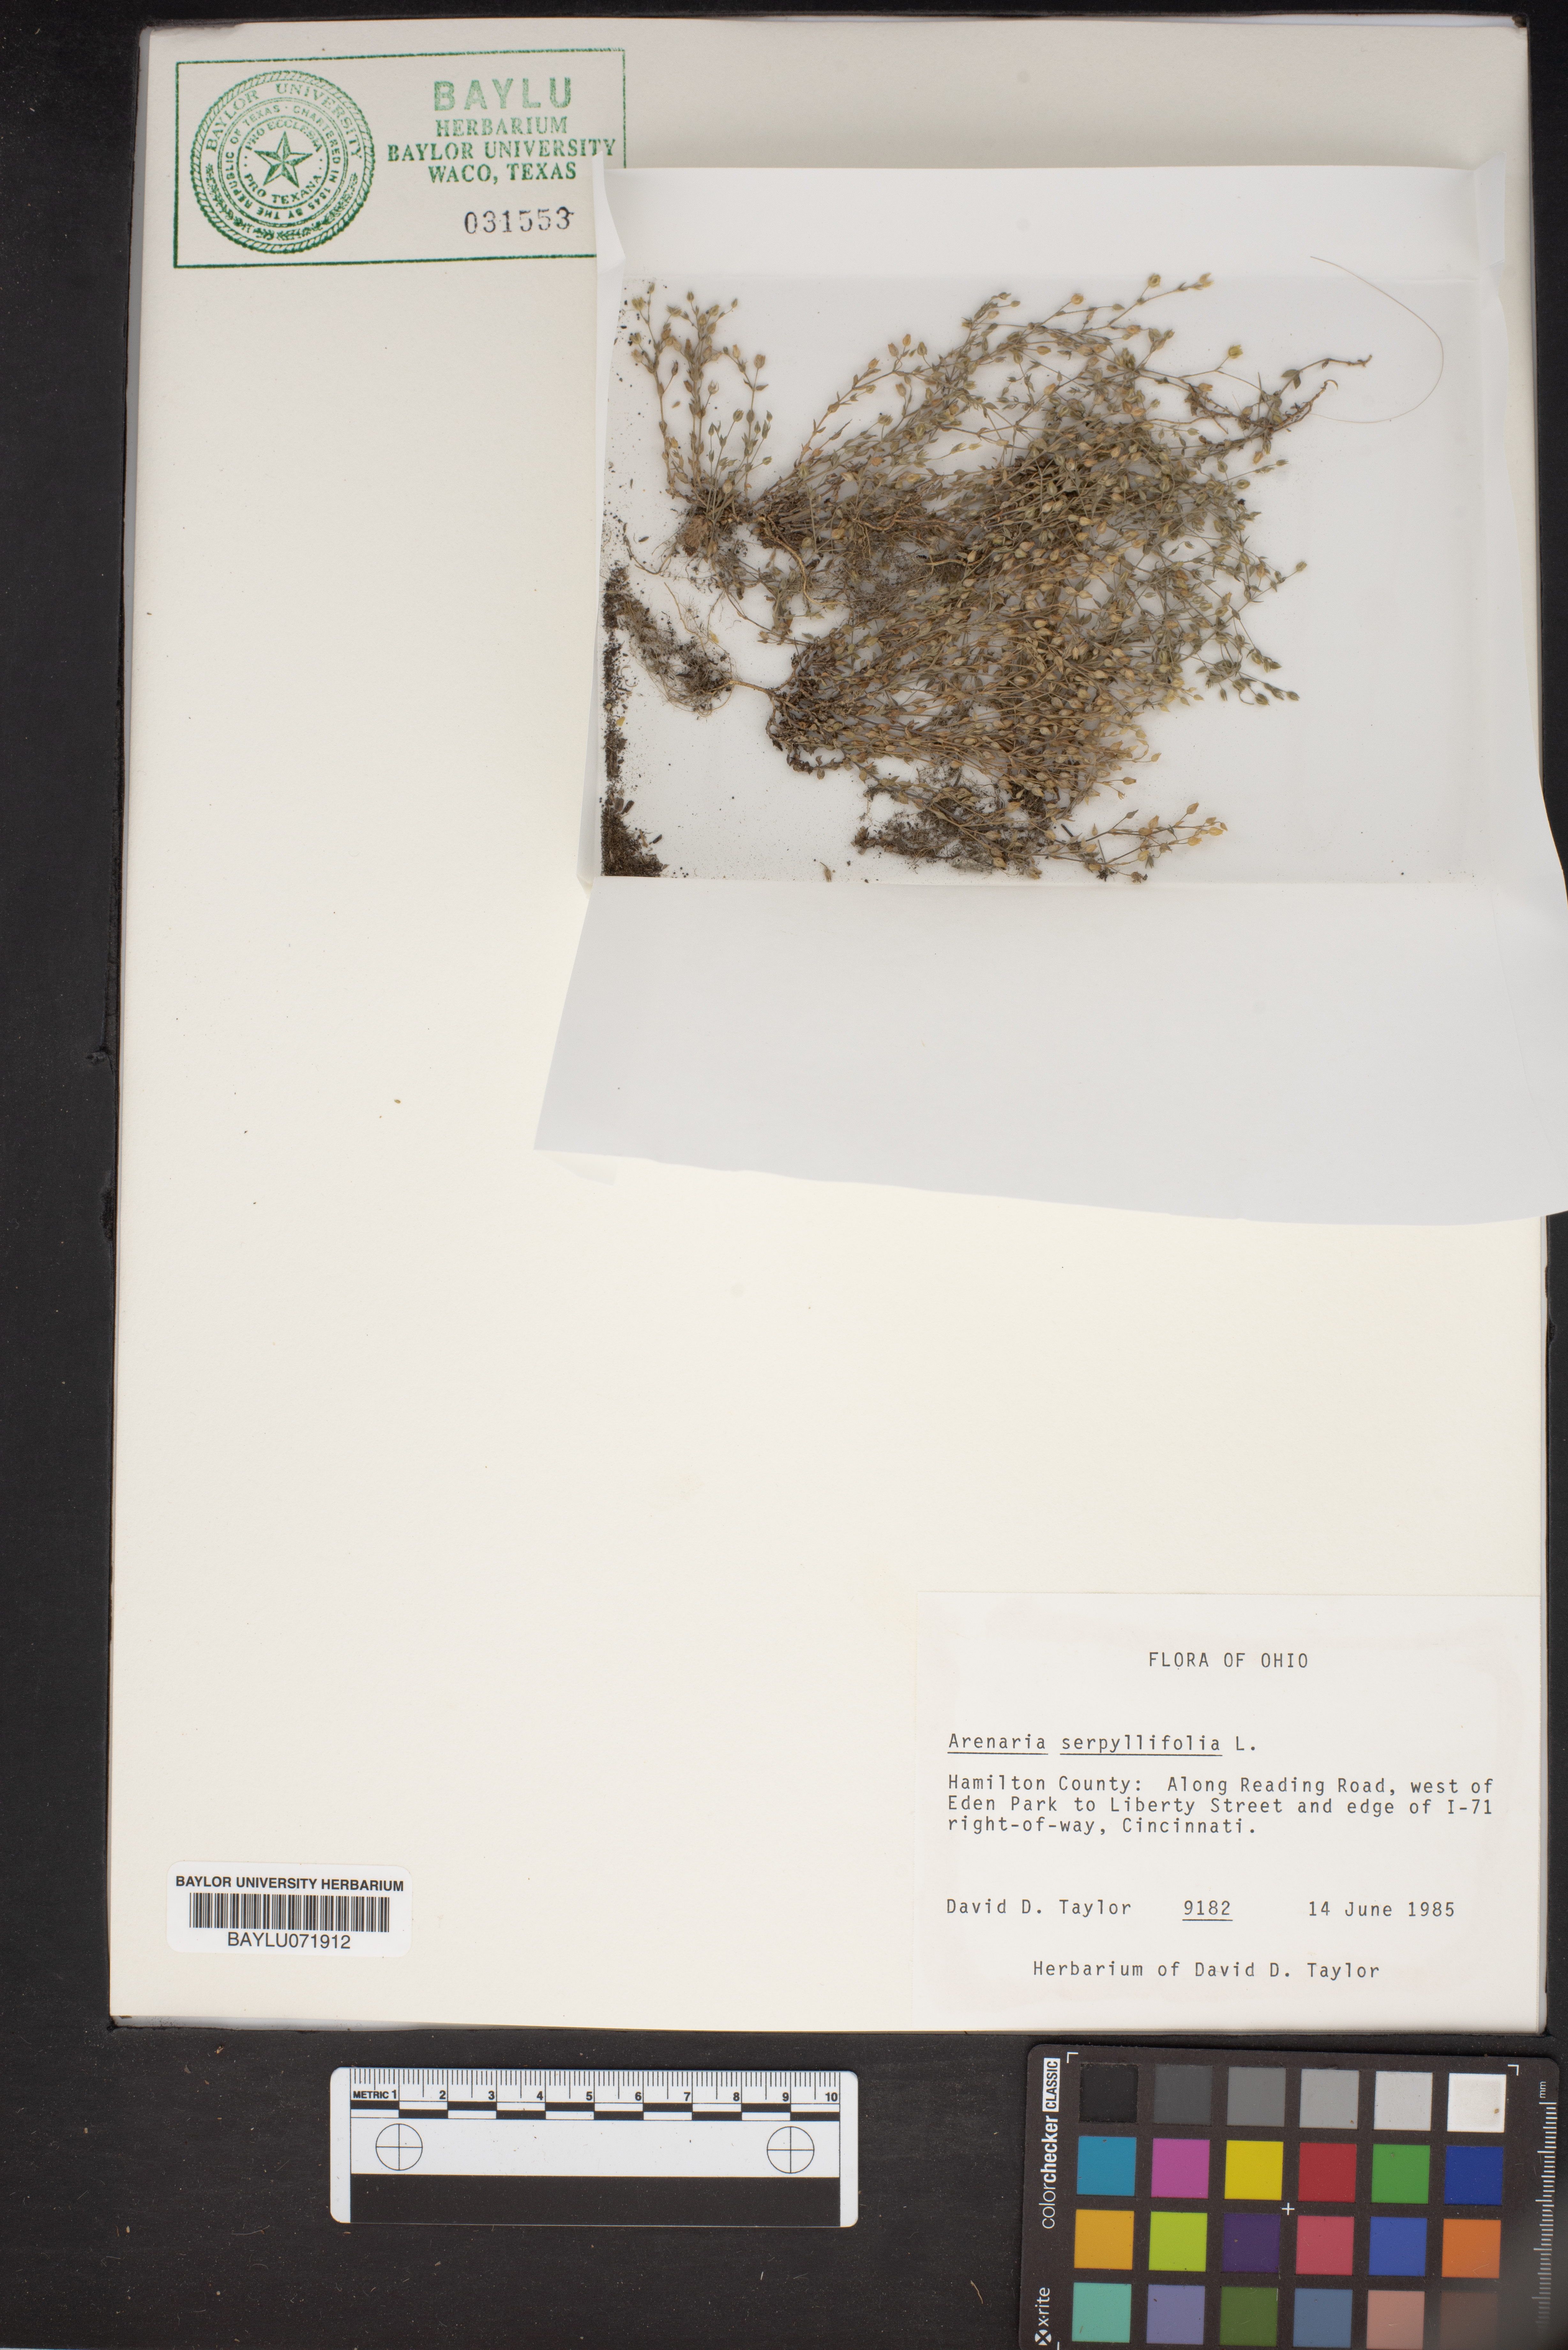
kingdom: Plantae
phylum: Tracheophyta
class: Magnoliopsida
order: Caryophyllales
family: Caryophyllaceae
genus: Arenaria
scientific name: Arenaria serpyllifolia
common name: Thyme-leaved sandwort
